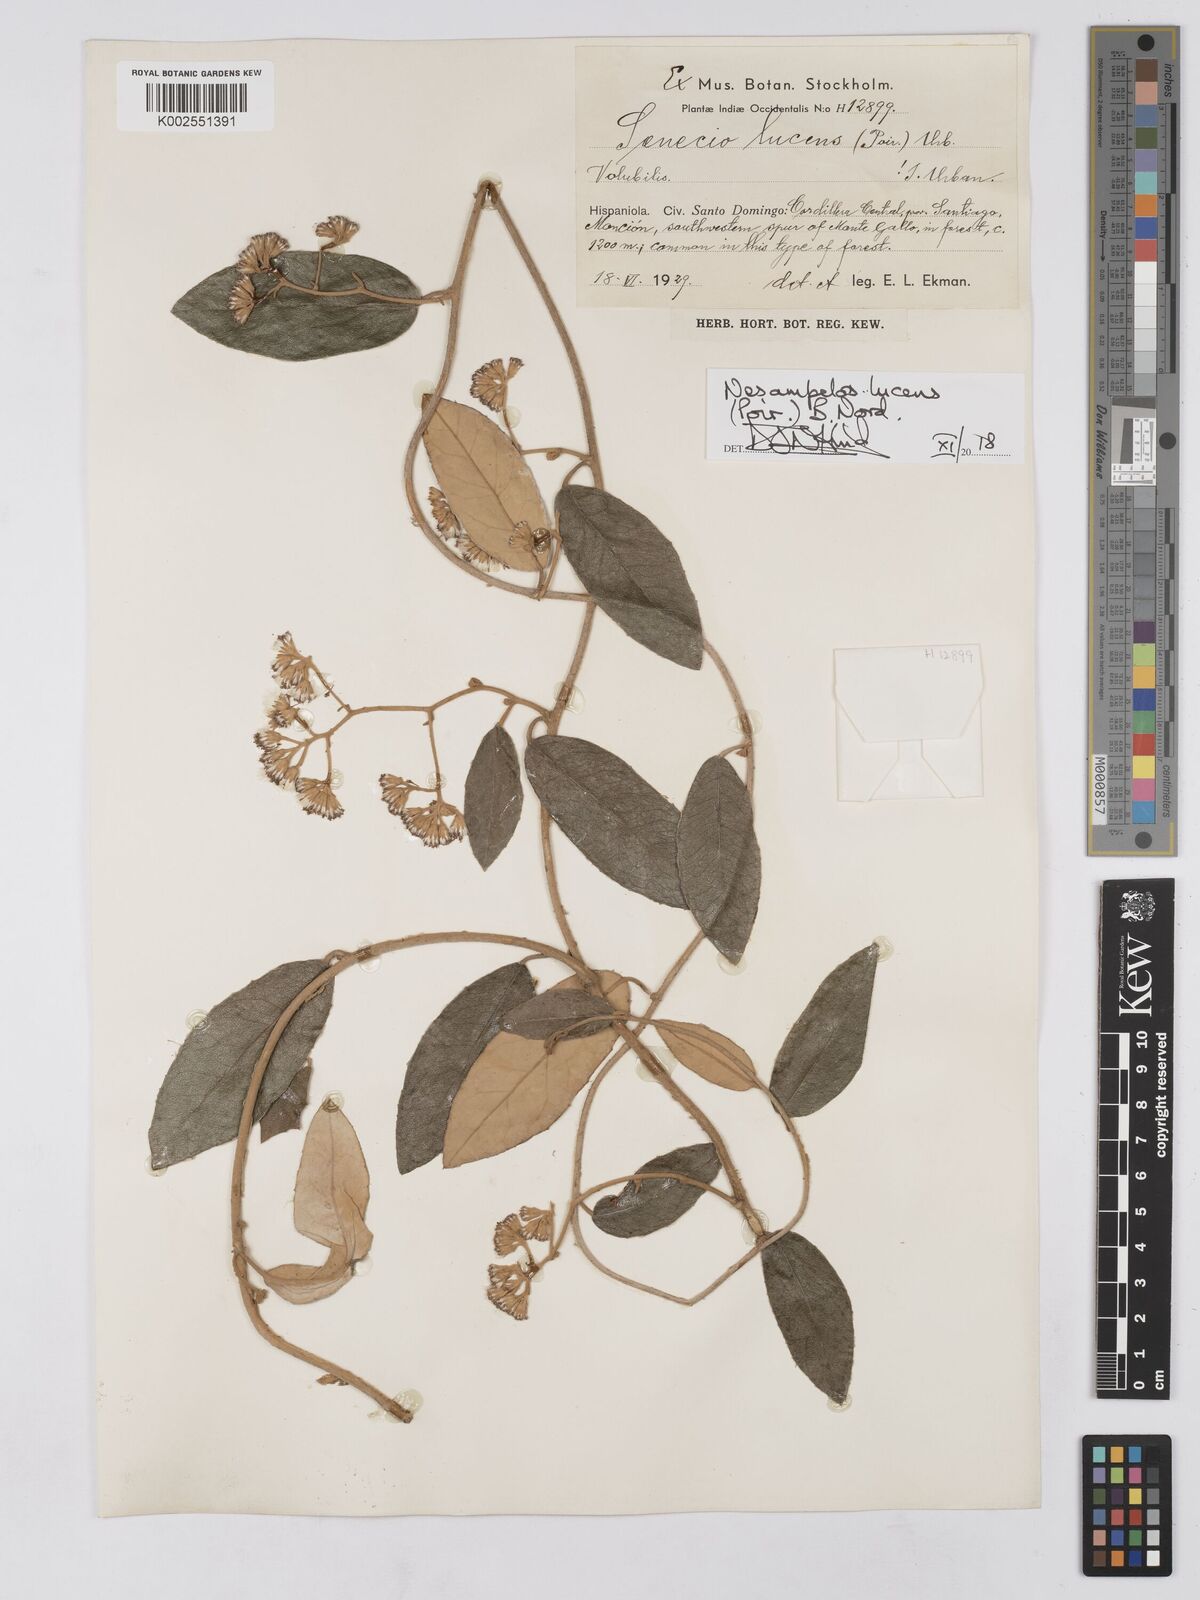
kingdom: Plantae
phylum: Tracheophyta
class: Magnoliopsida
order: Asterales
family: Asteraceae
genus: Nesampelos
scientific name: Nesampelos lucens
